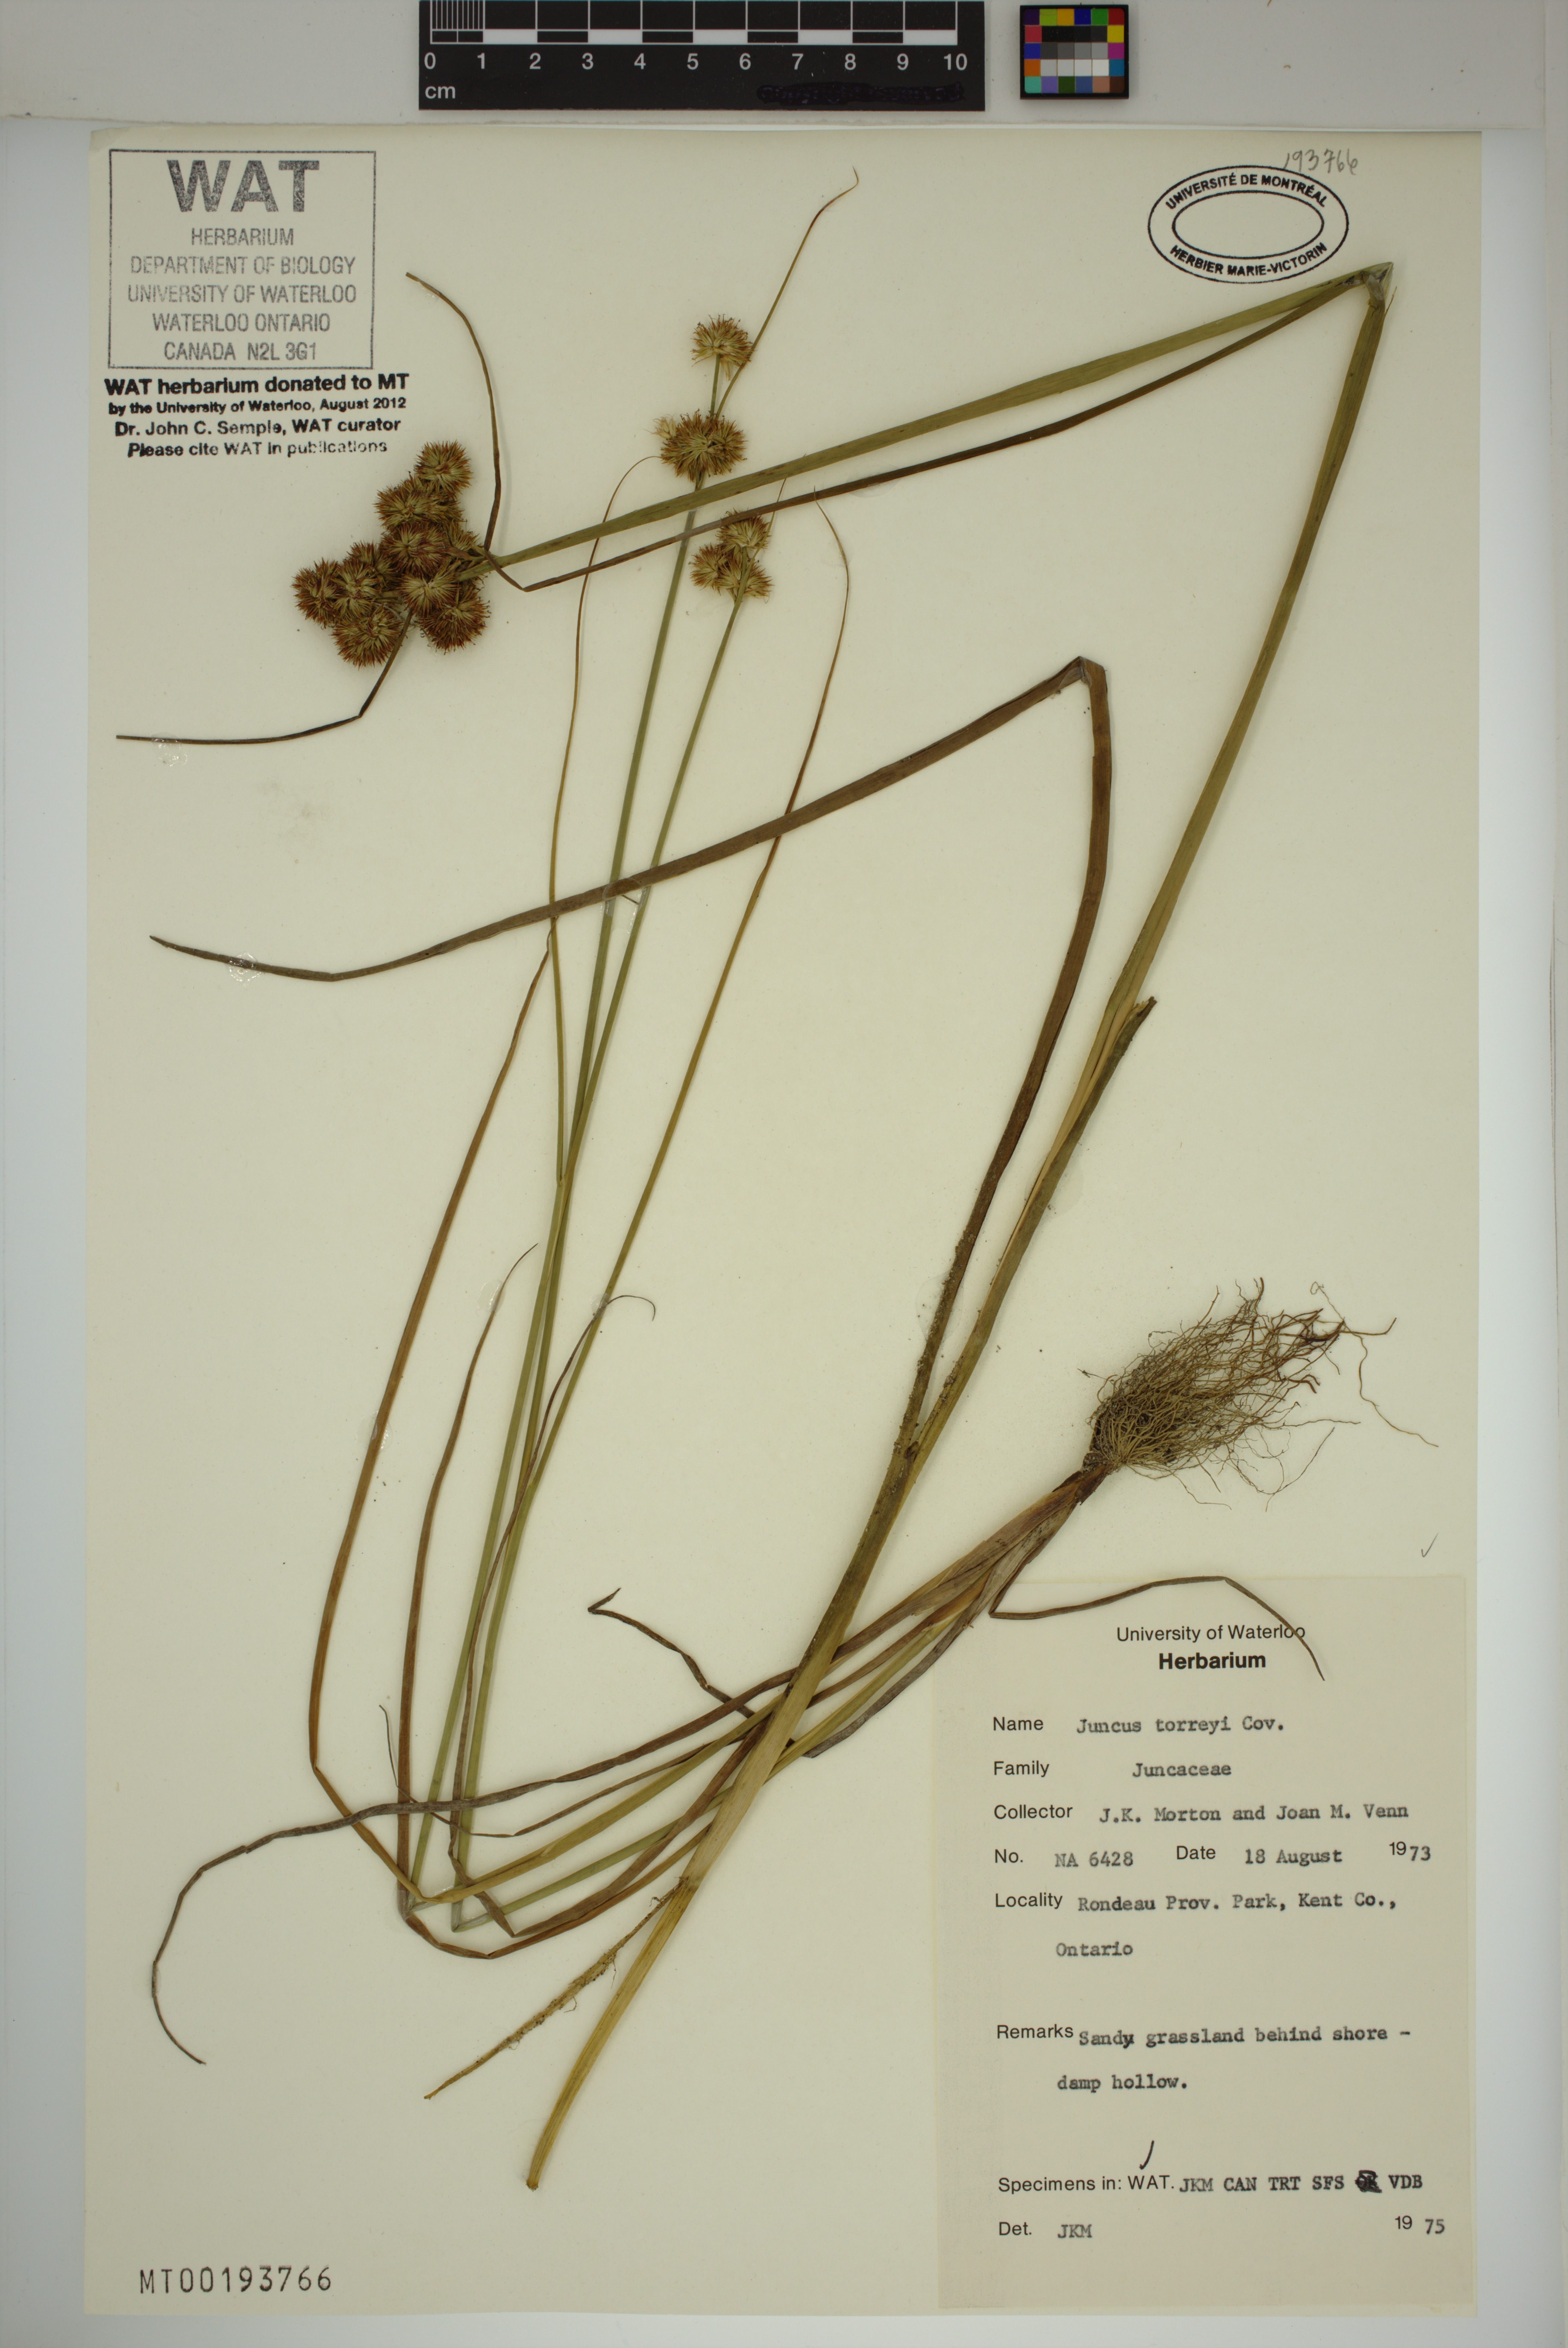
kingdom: Plantae
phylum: Tracheophyta
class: Liliopsida
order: Poales
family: Juncaceae
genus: Juncus
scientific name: Juncus torreyi
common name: Torrey's rush
